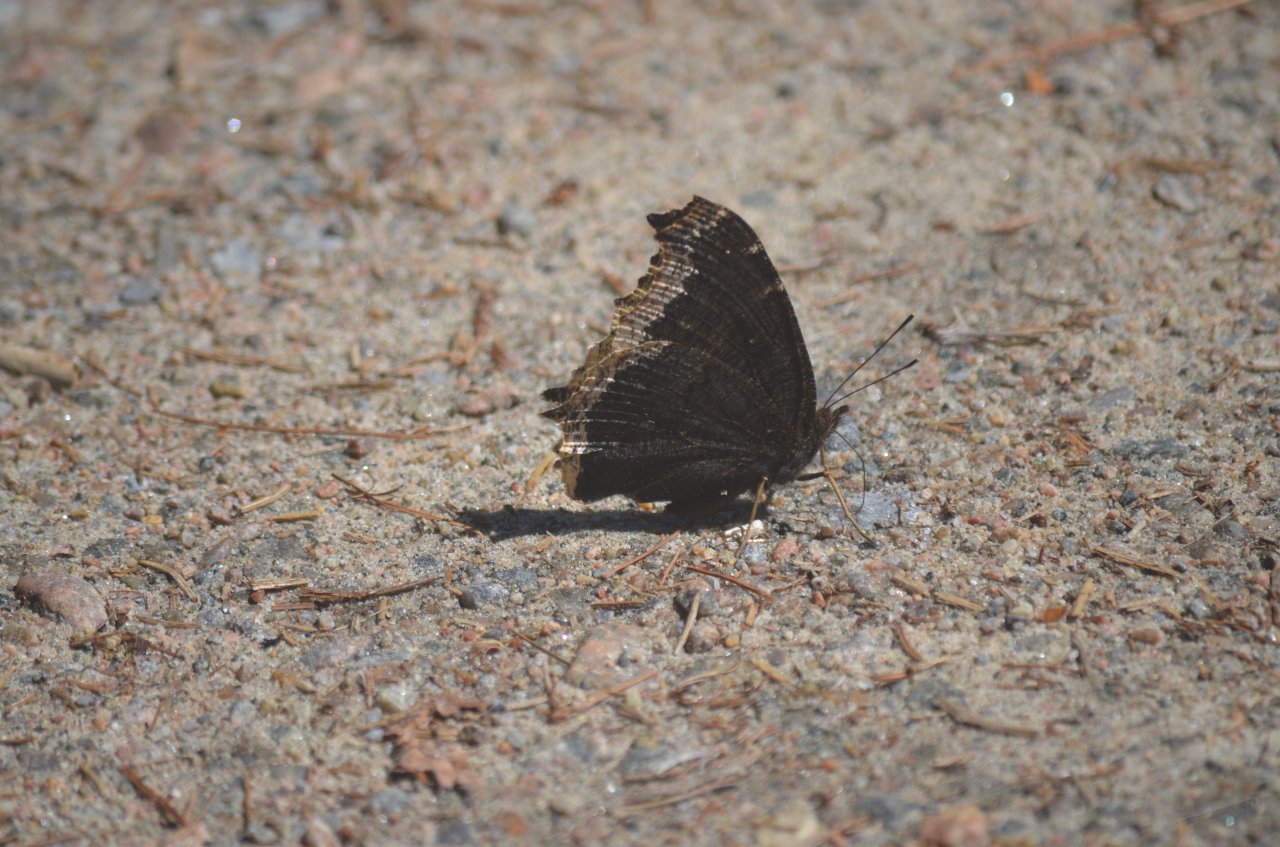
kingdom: Animalia
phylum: Arthropoda
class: Insecta
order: Lepidoptera
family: Nymphalidae
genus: Nymphalis
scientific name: Nymphalis antiopa
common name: Mourning Cloak
